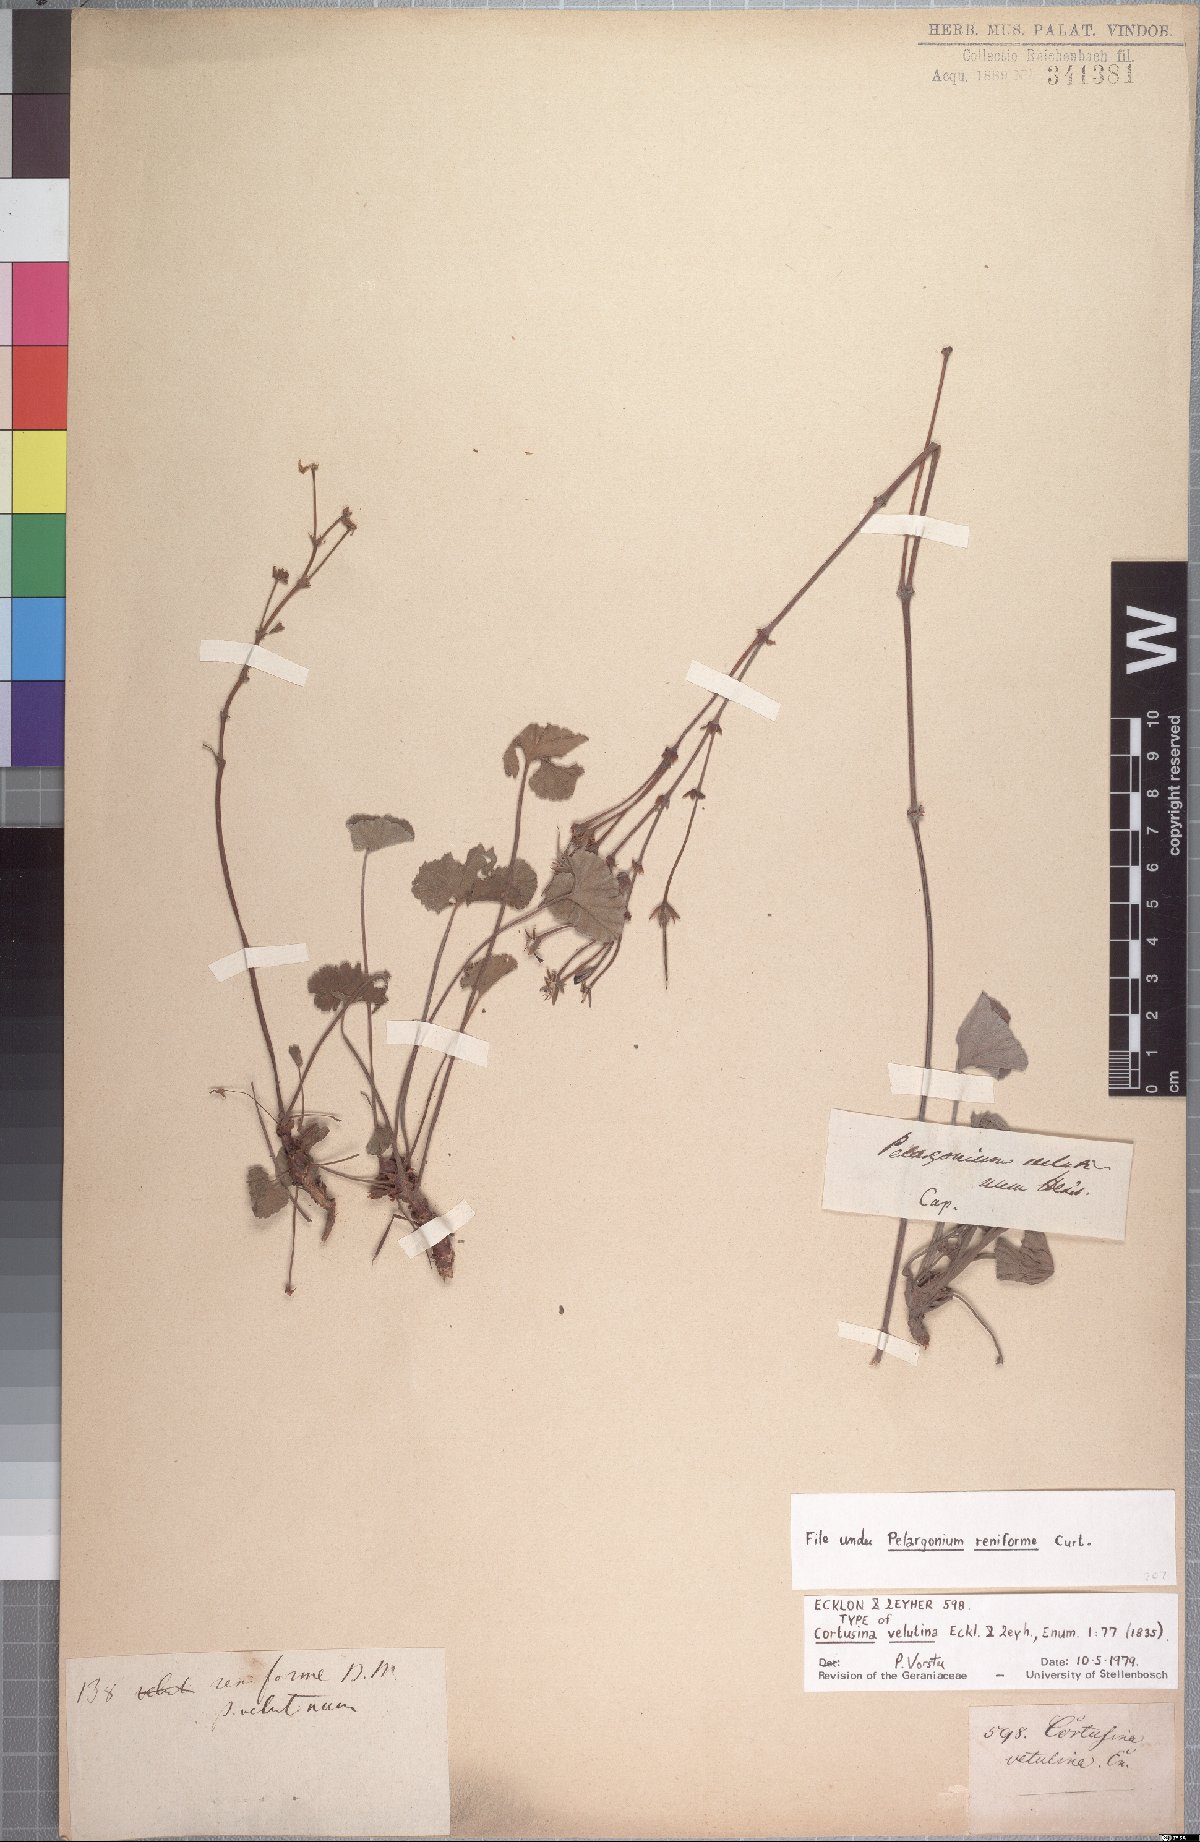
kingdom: Plantae
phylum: Tracheophyta
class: Magnoliopsida
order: Geraniales
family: Geraniaceae
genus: Pelargonium
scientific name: Pelargonium reniforme
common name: Kidney-leaf pelargonium
